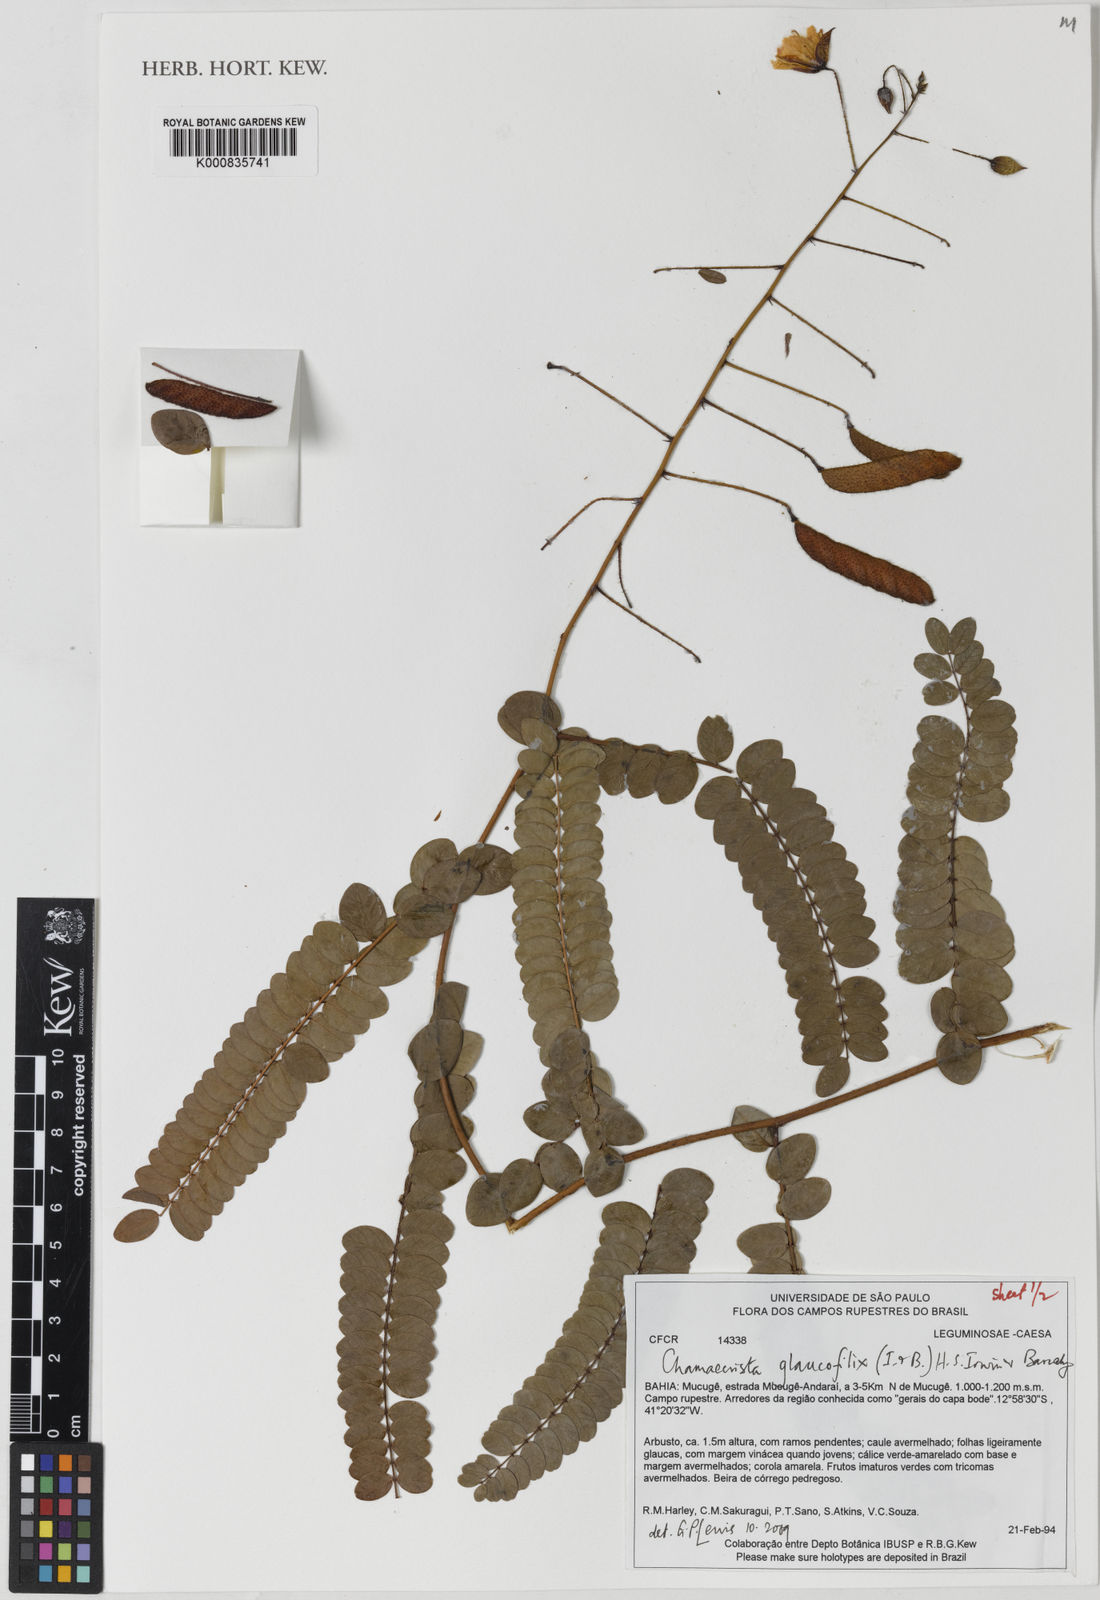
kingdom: Plantae
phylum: Tracheophyta
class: Magnoliopsida
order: Fabales
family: Fabaceae
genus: Chamaecrista
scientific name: Chamaecrista glaucofilix
